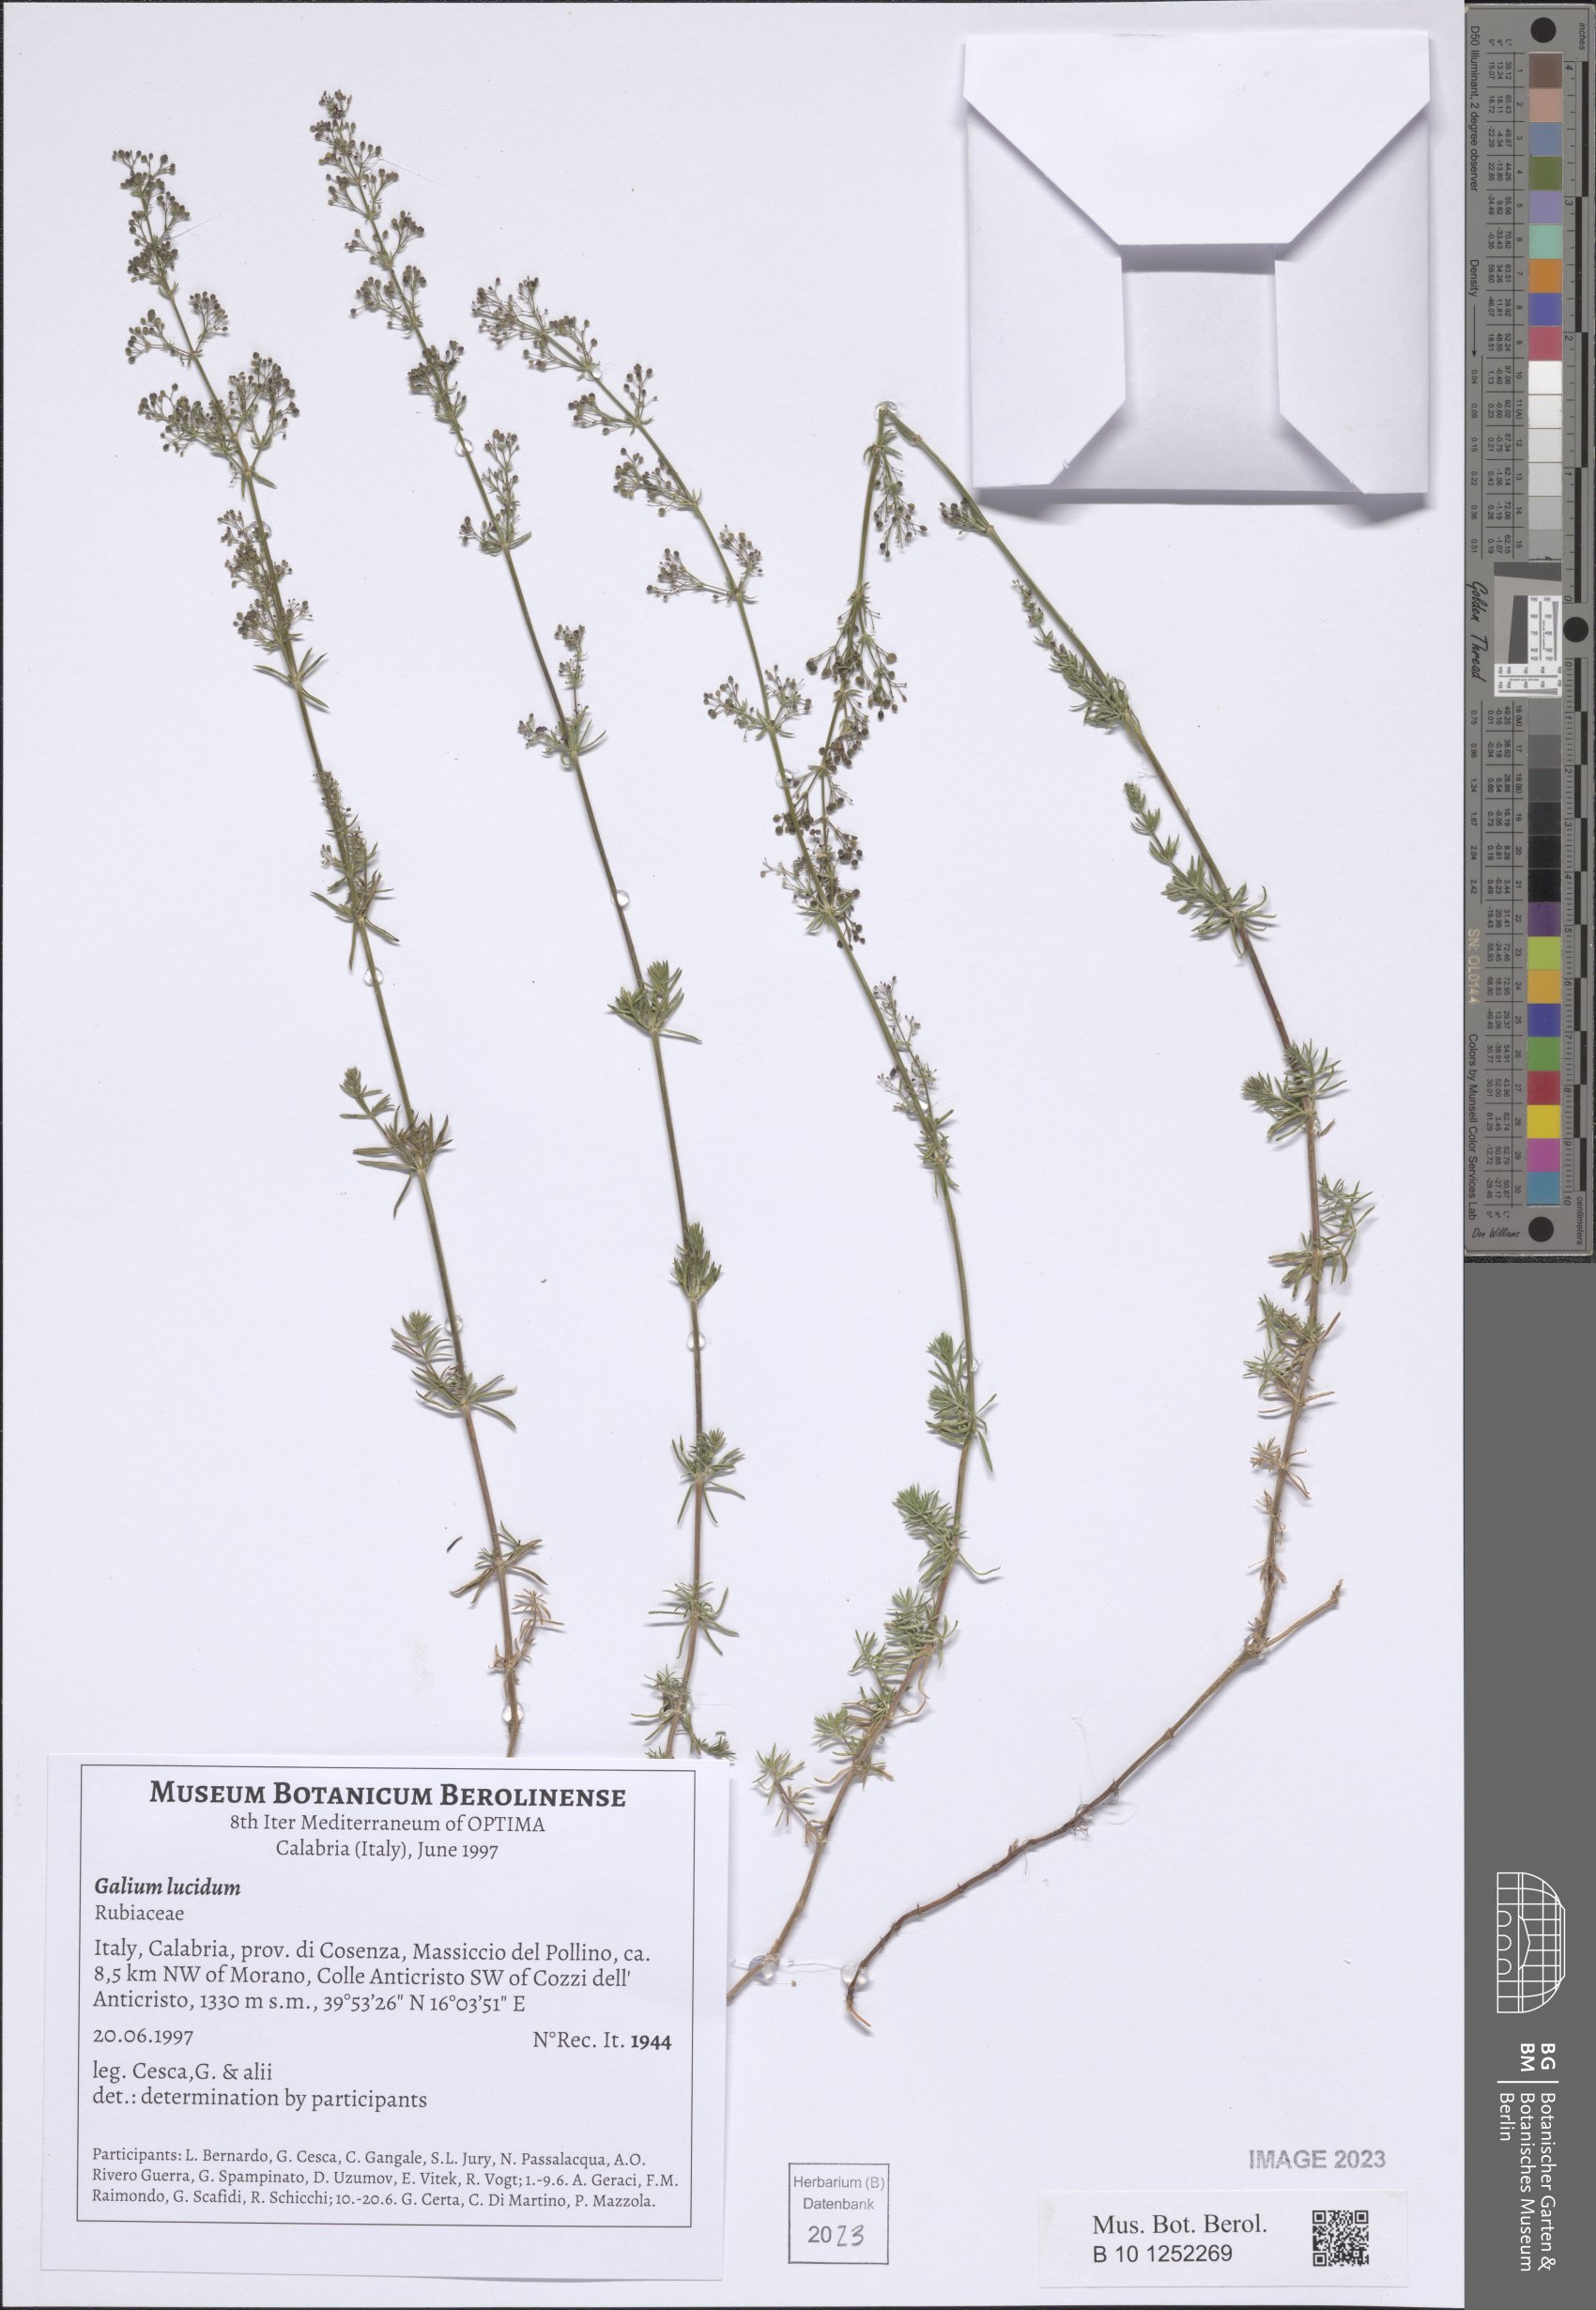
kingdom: Plantae
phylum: Tracheophyta
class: Magnoliopsida
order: Gentianales
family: Rubiaceae
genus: Galium
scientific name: Galium lucidum
